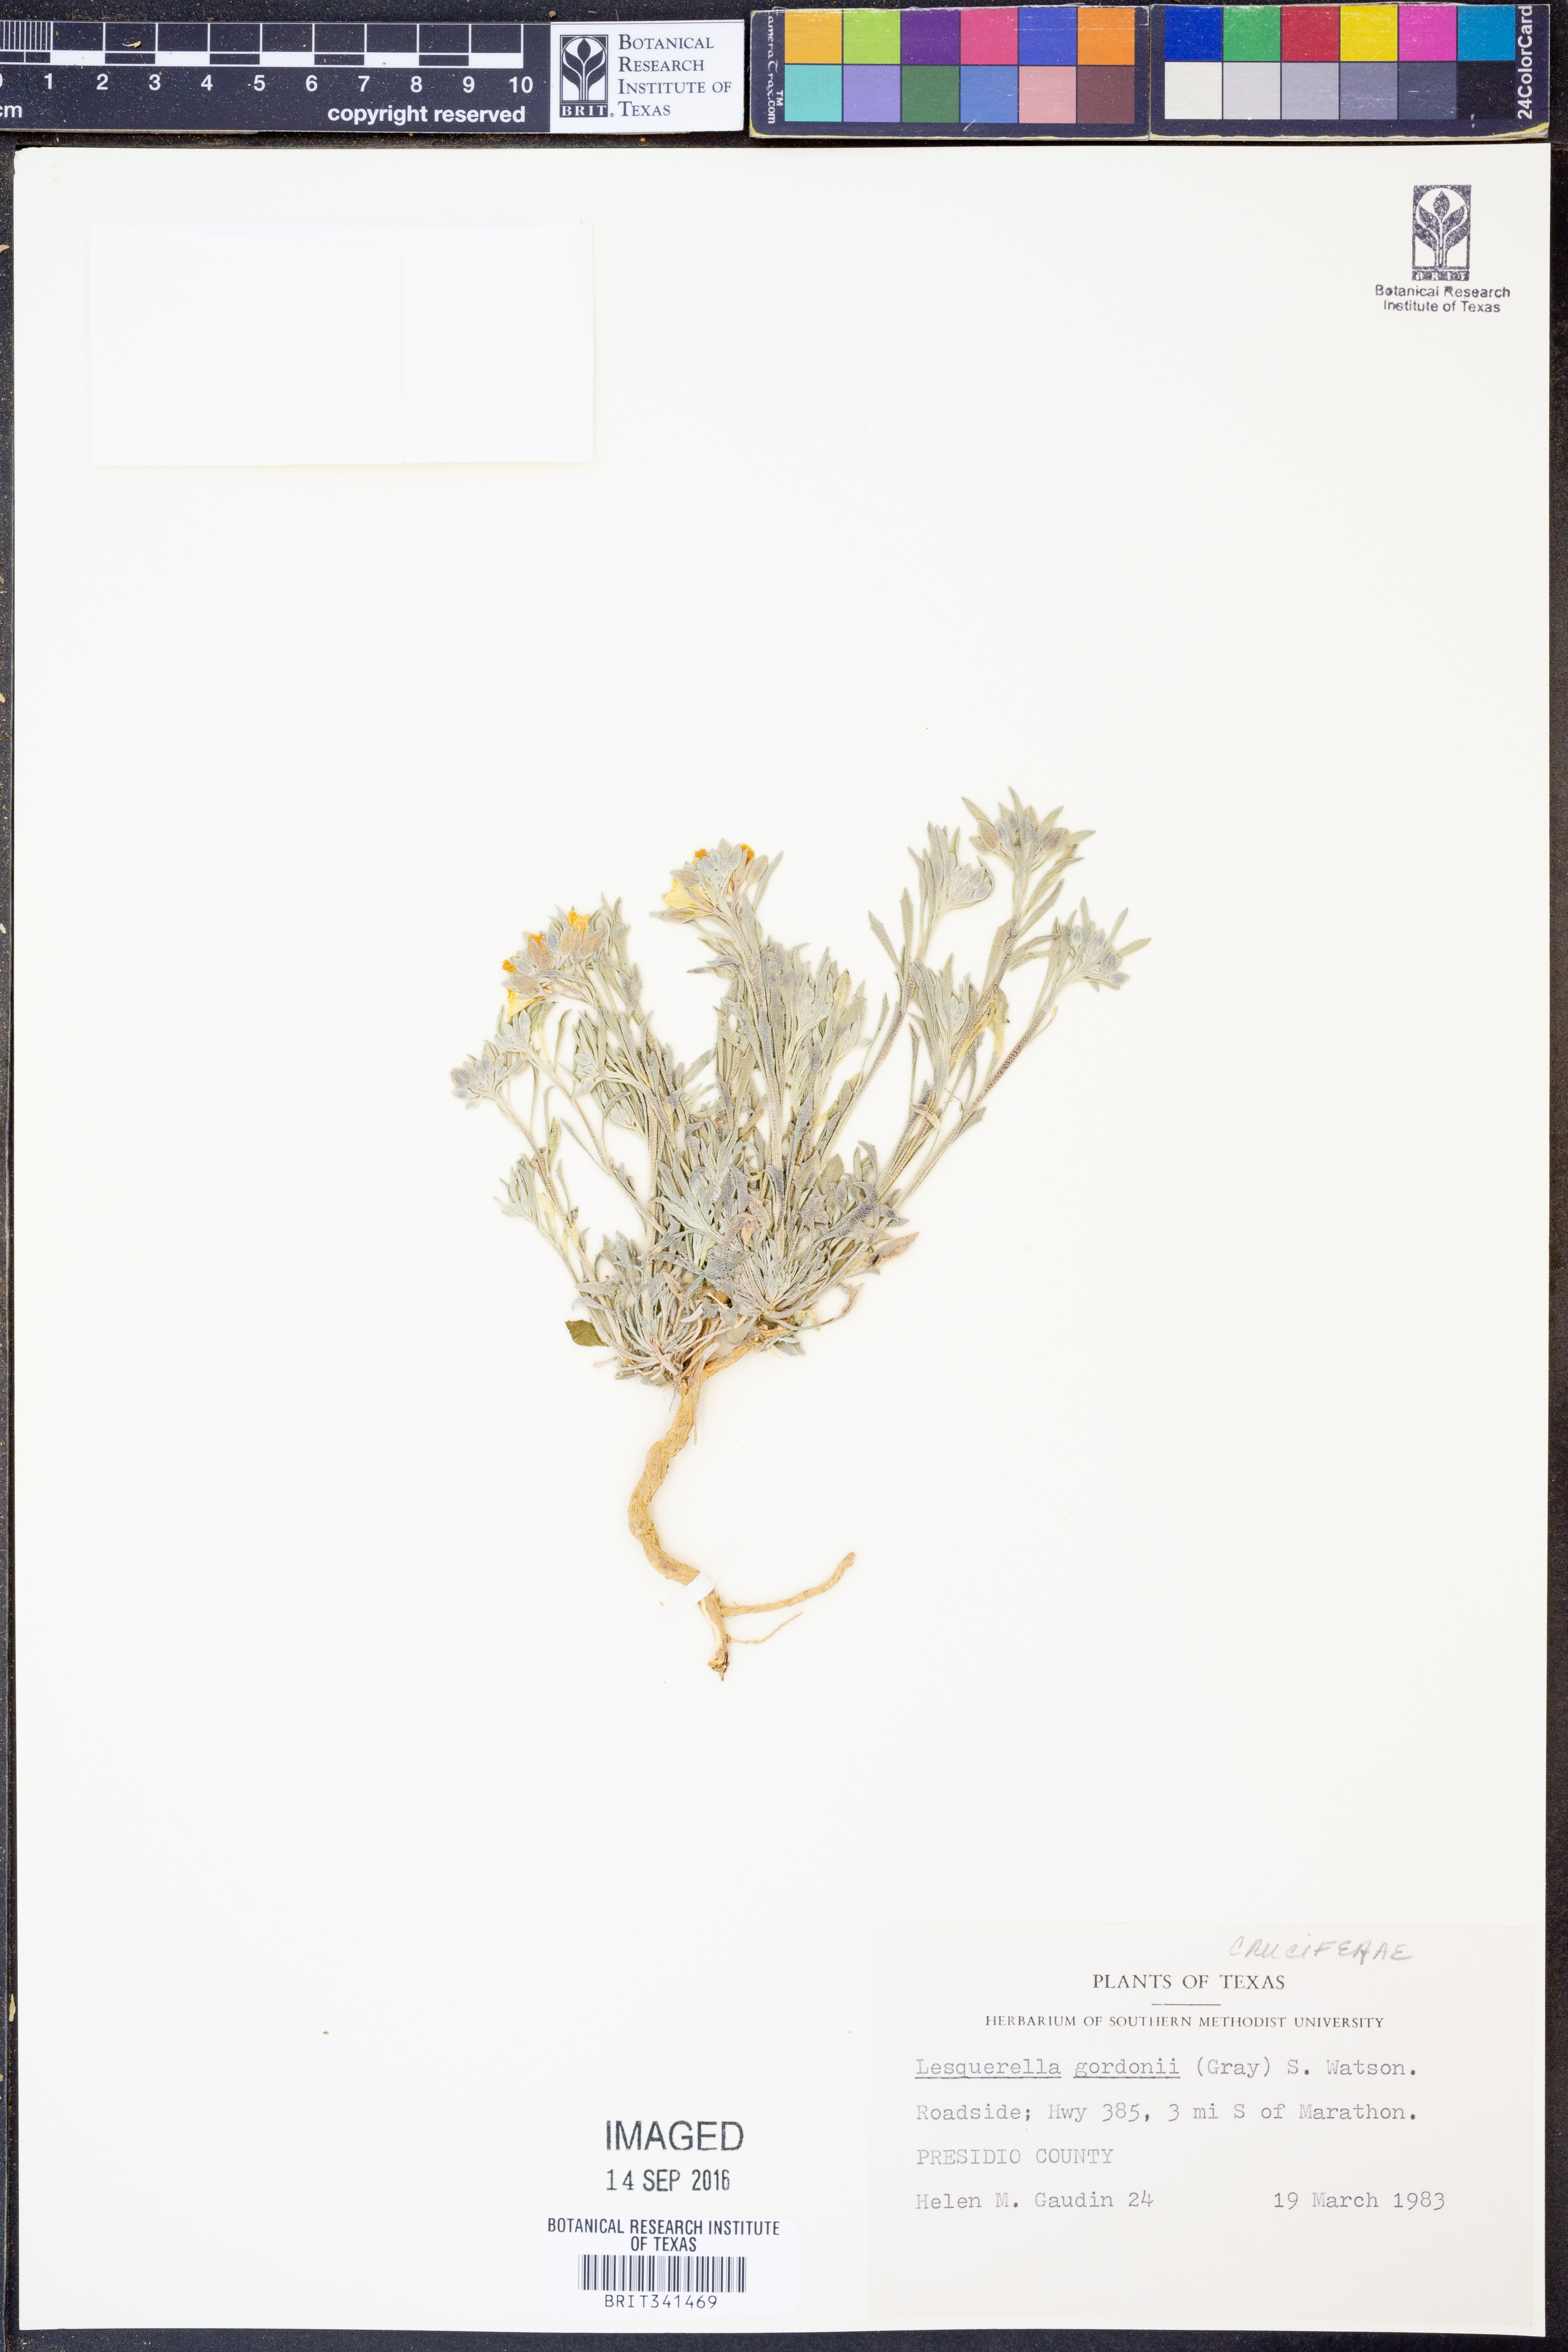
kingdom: Plantae
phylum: Tracheophyta
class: Magnoliopsida
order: Brassicales
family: Brassicaceae
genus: Physaria
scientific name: Physaria gordonii
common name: Gordon's bladderpod
